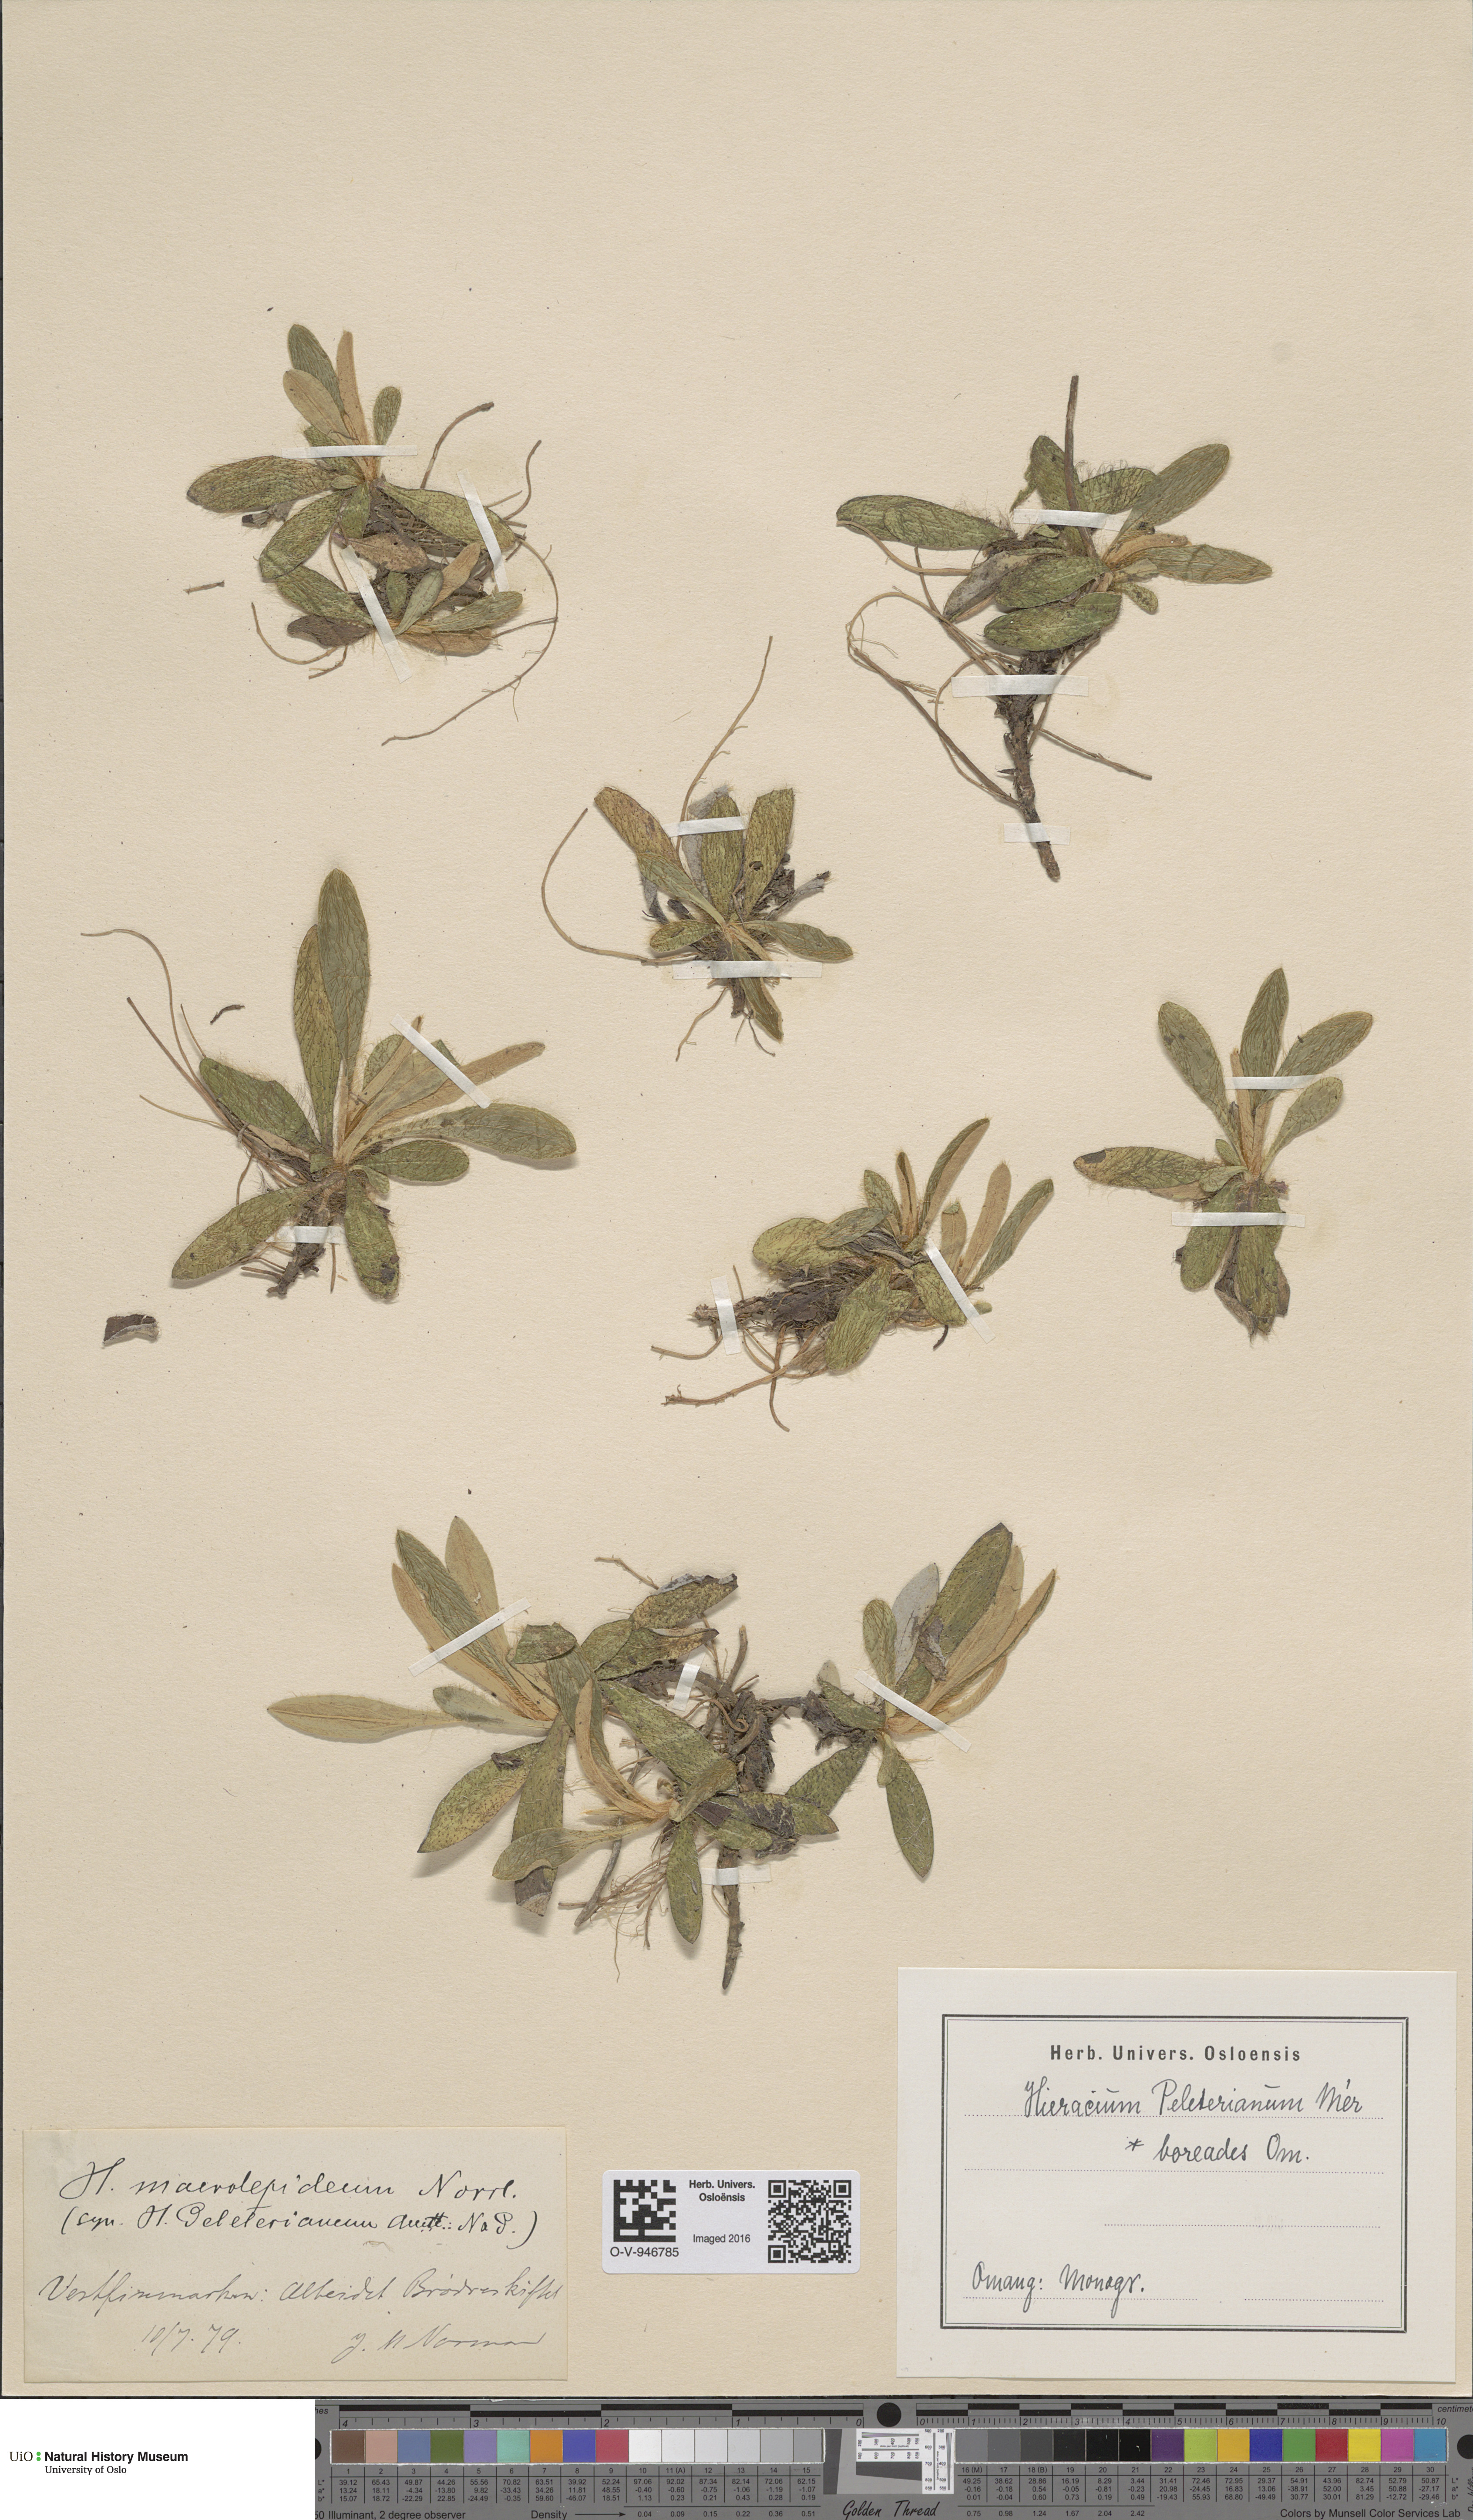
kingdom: Plantae
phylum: Tracheophyta
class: Magnoliopsida
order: Asterales
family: Asteraceae
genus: Pilosella
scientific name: Pilosella peleteriana
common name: Shaggy mouse-ear-hawkweed
